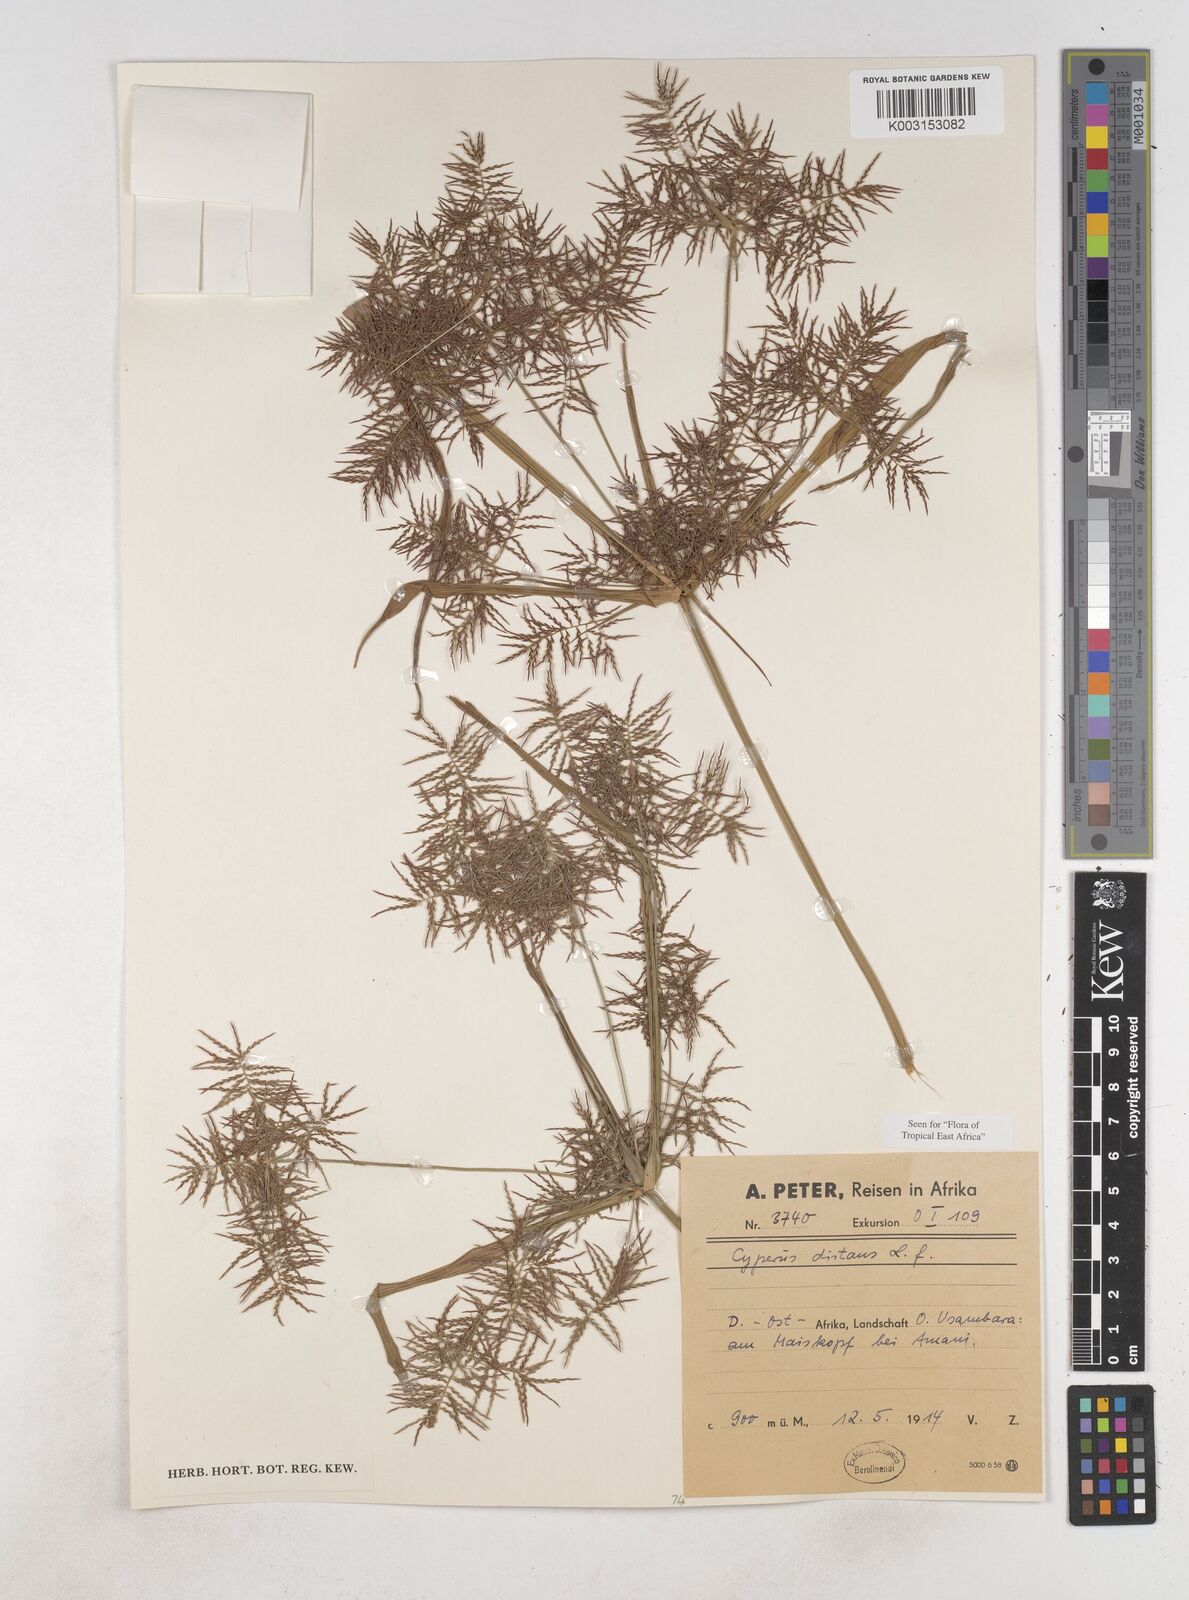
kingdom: Plantae
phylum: Tracheophyta
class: Liliopsida
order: Poales
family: Cyperaceae
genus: Cyperus
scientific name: Cyperus distans
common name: Slender cyperus
